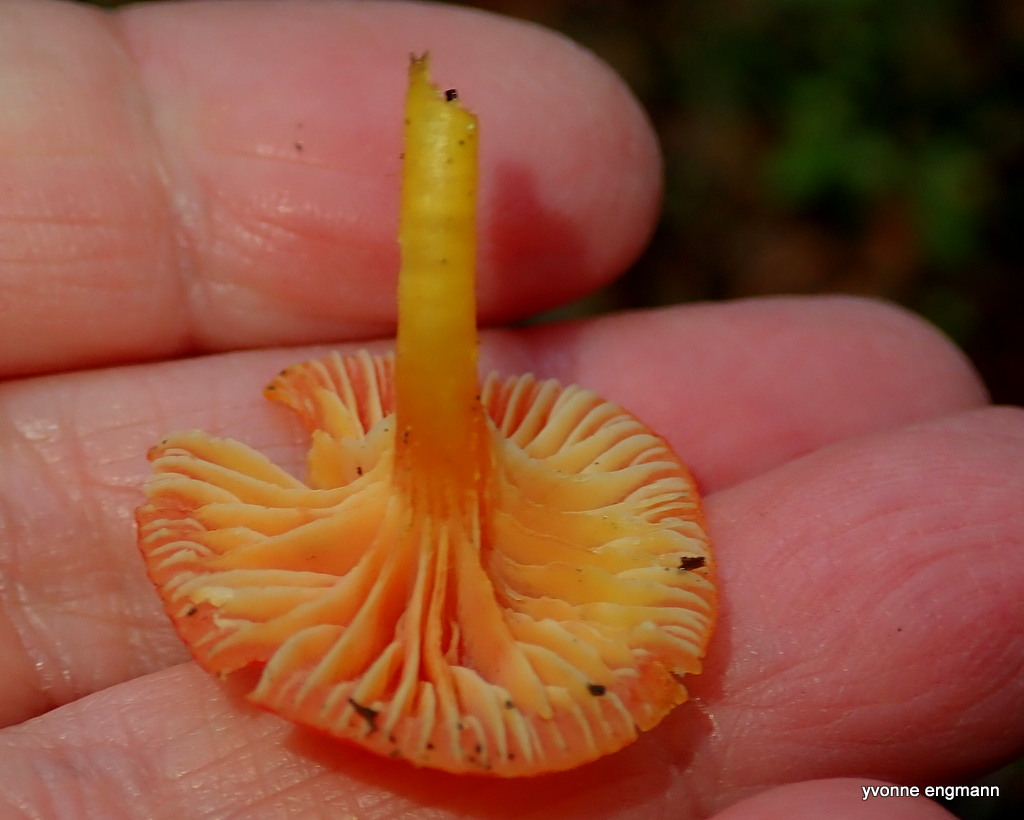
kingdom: Fungi
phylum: Basidiomycota
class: Agaricomycetes
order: Agaricales
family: Hygrophoraceae
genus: Hygrocybe
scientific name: Hygrocybe insipida
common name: liden vokshat
